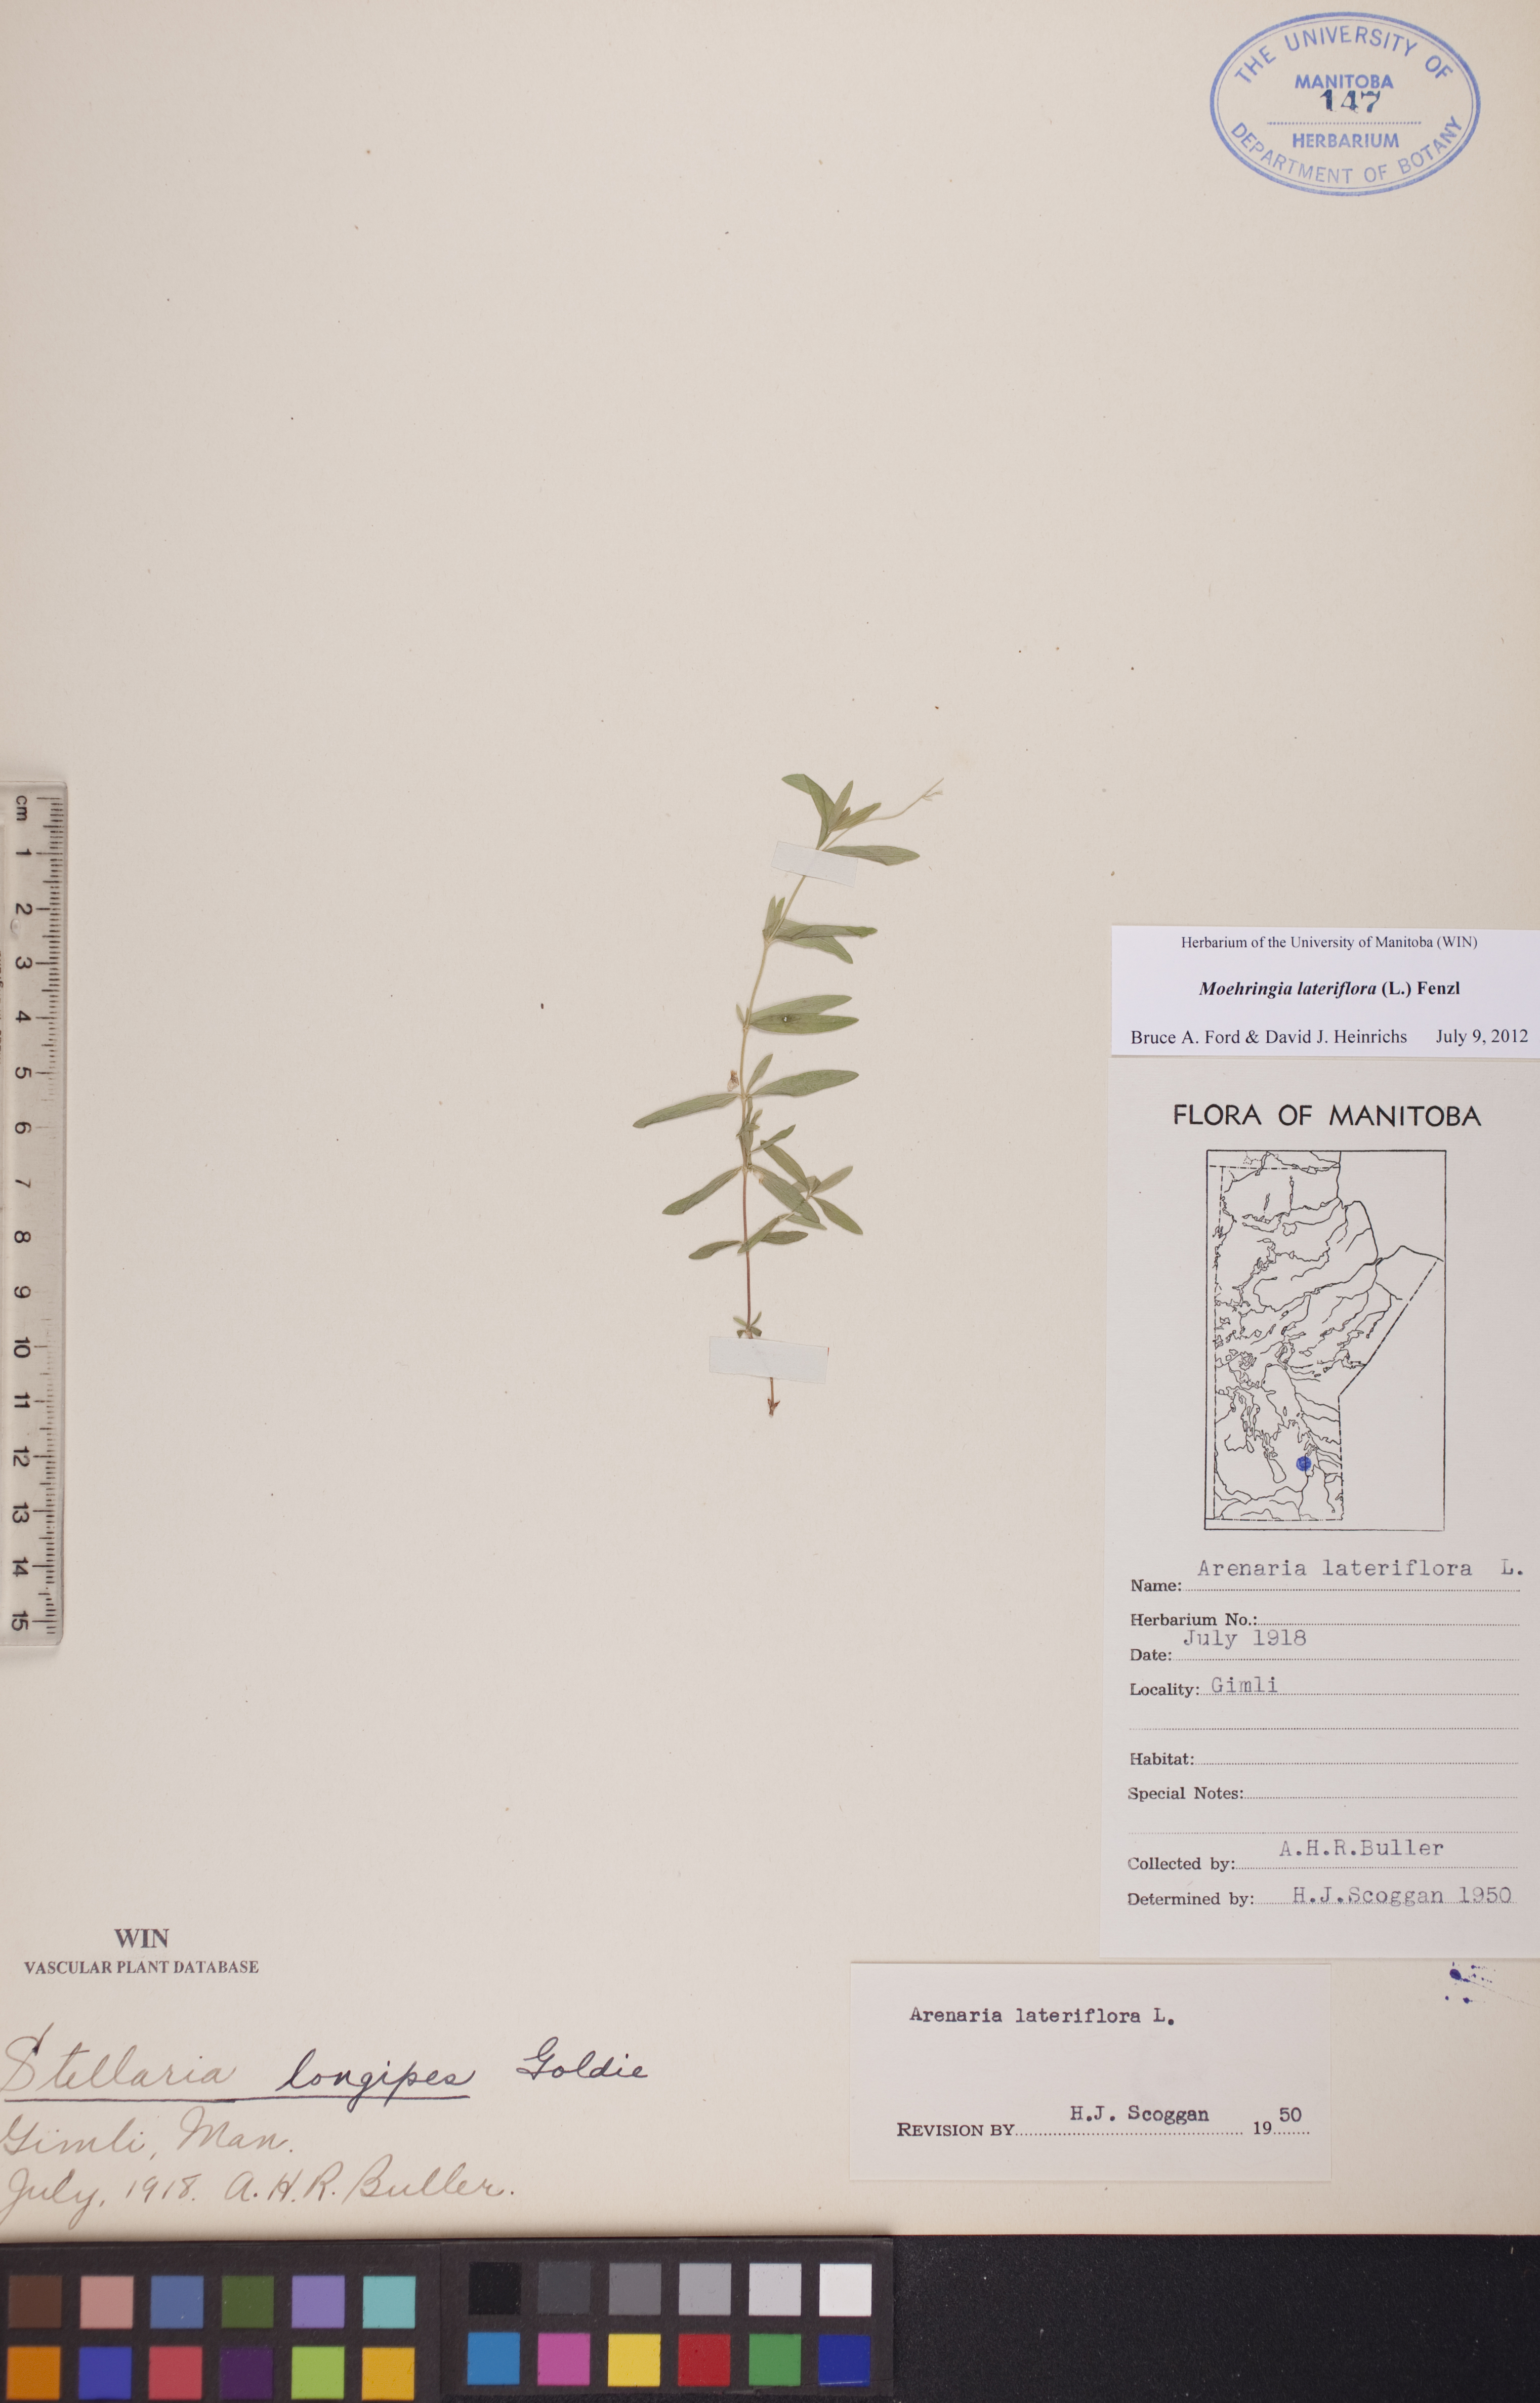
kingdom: Plantae
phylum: Tracheophyta
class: Magnoliopsida
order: Caryophyllales
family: Caryophyllaceae
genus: Moehringia
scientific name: Moehringia lateriflora
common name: Blunt-leaved sandwort
